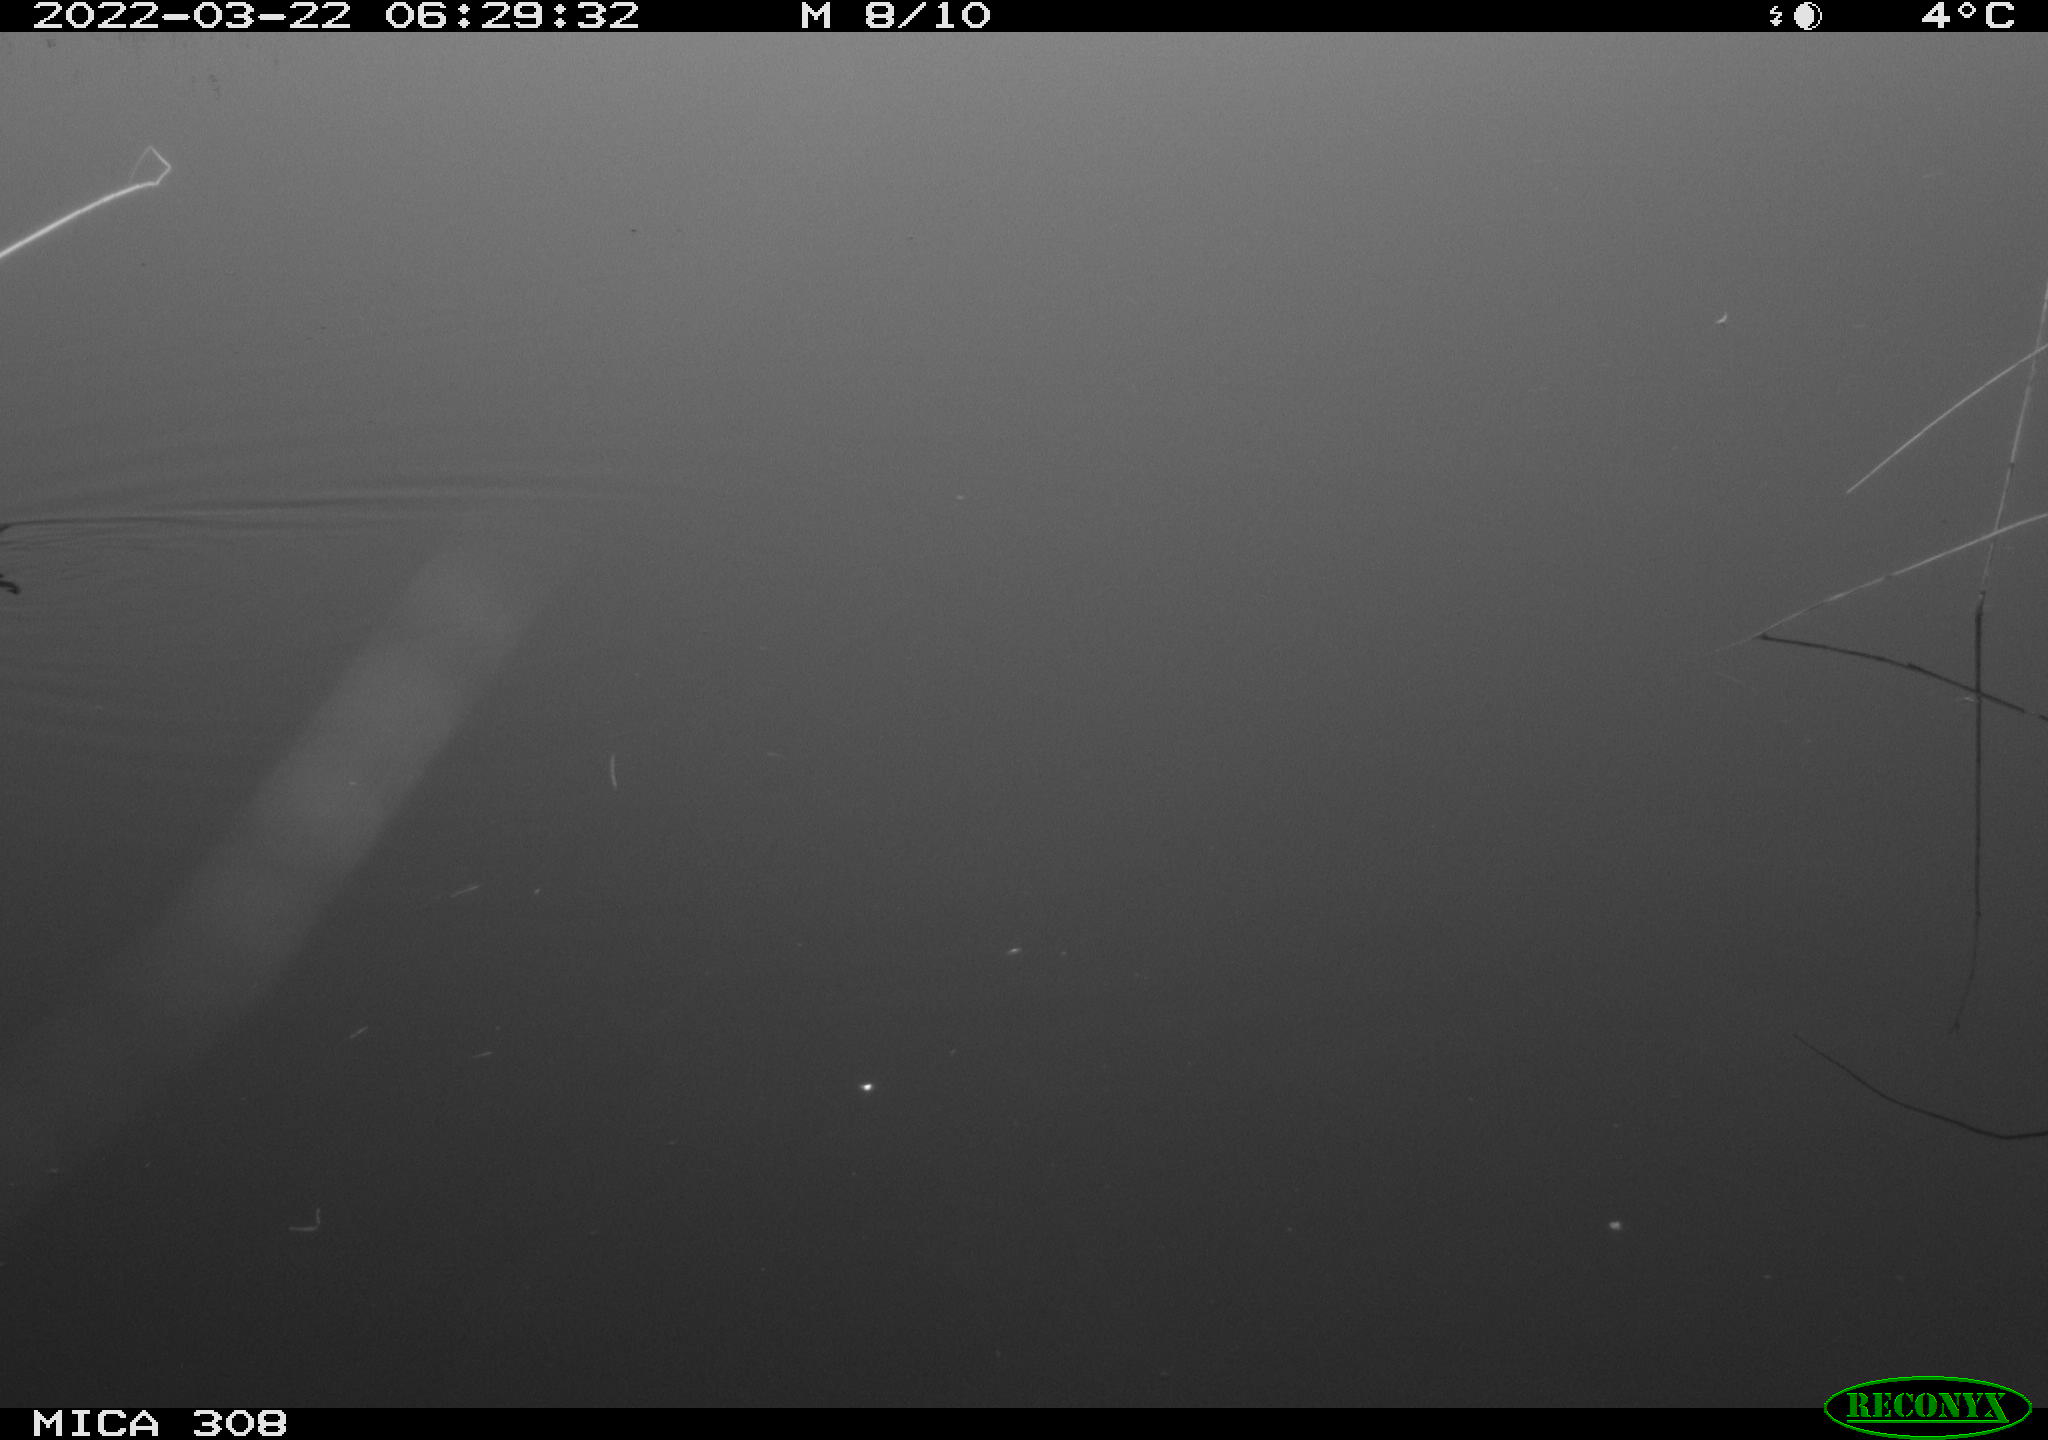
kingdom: Animalia
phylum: Chordata
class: Aves
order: Gruiformes
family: Rallidae
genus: Gallinula
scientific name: Gallinula chloropus
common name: Common moorhen
